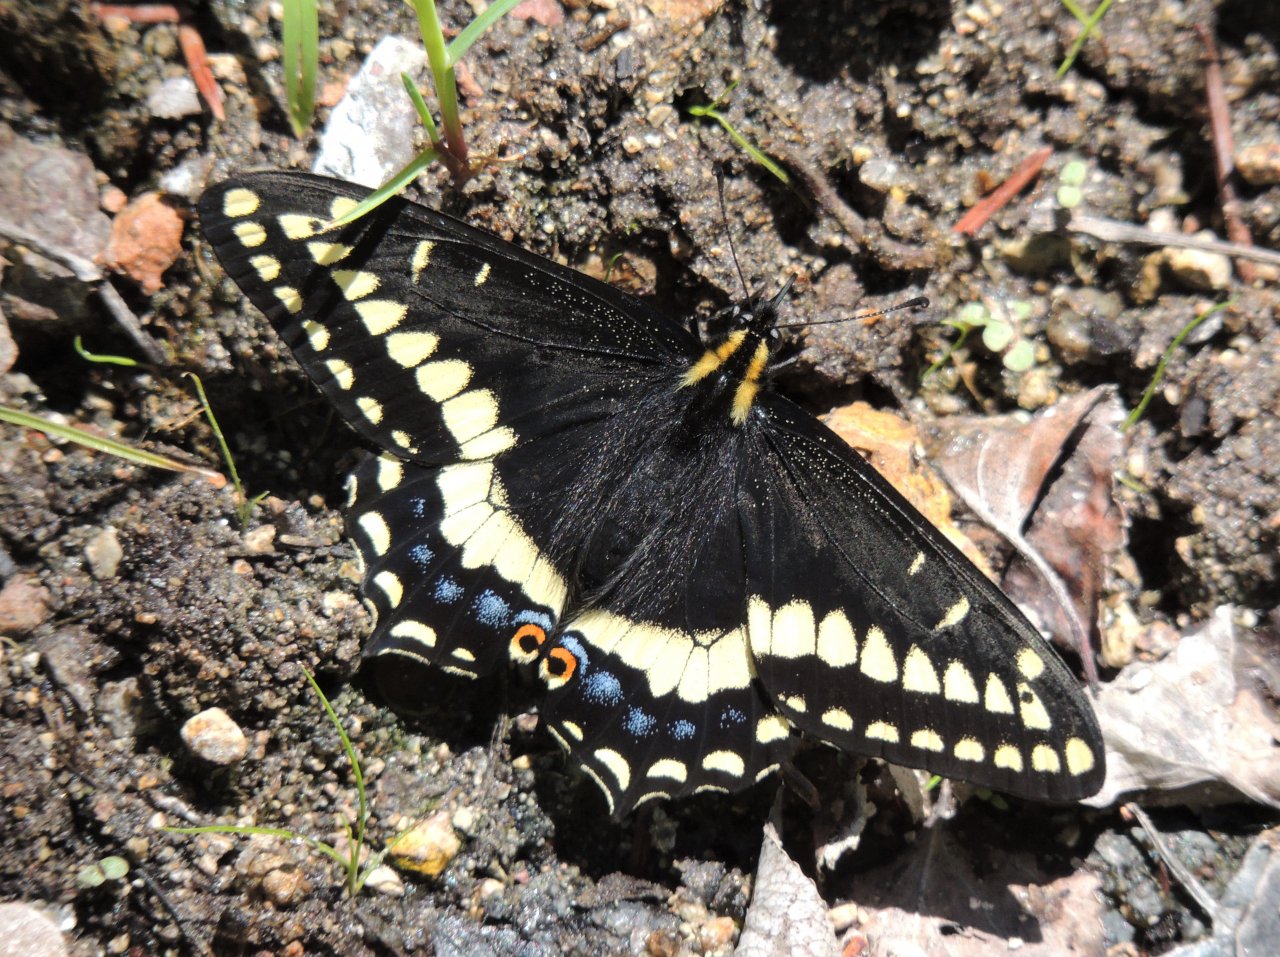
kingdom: Animalia
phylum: Arthropoda
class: Insecta
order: Lepidoptera
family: Papilionidae
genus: Papilio
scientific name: Papilio indra
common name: Indra Swallowtail
